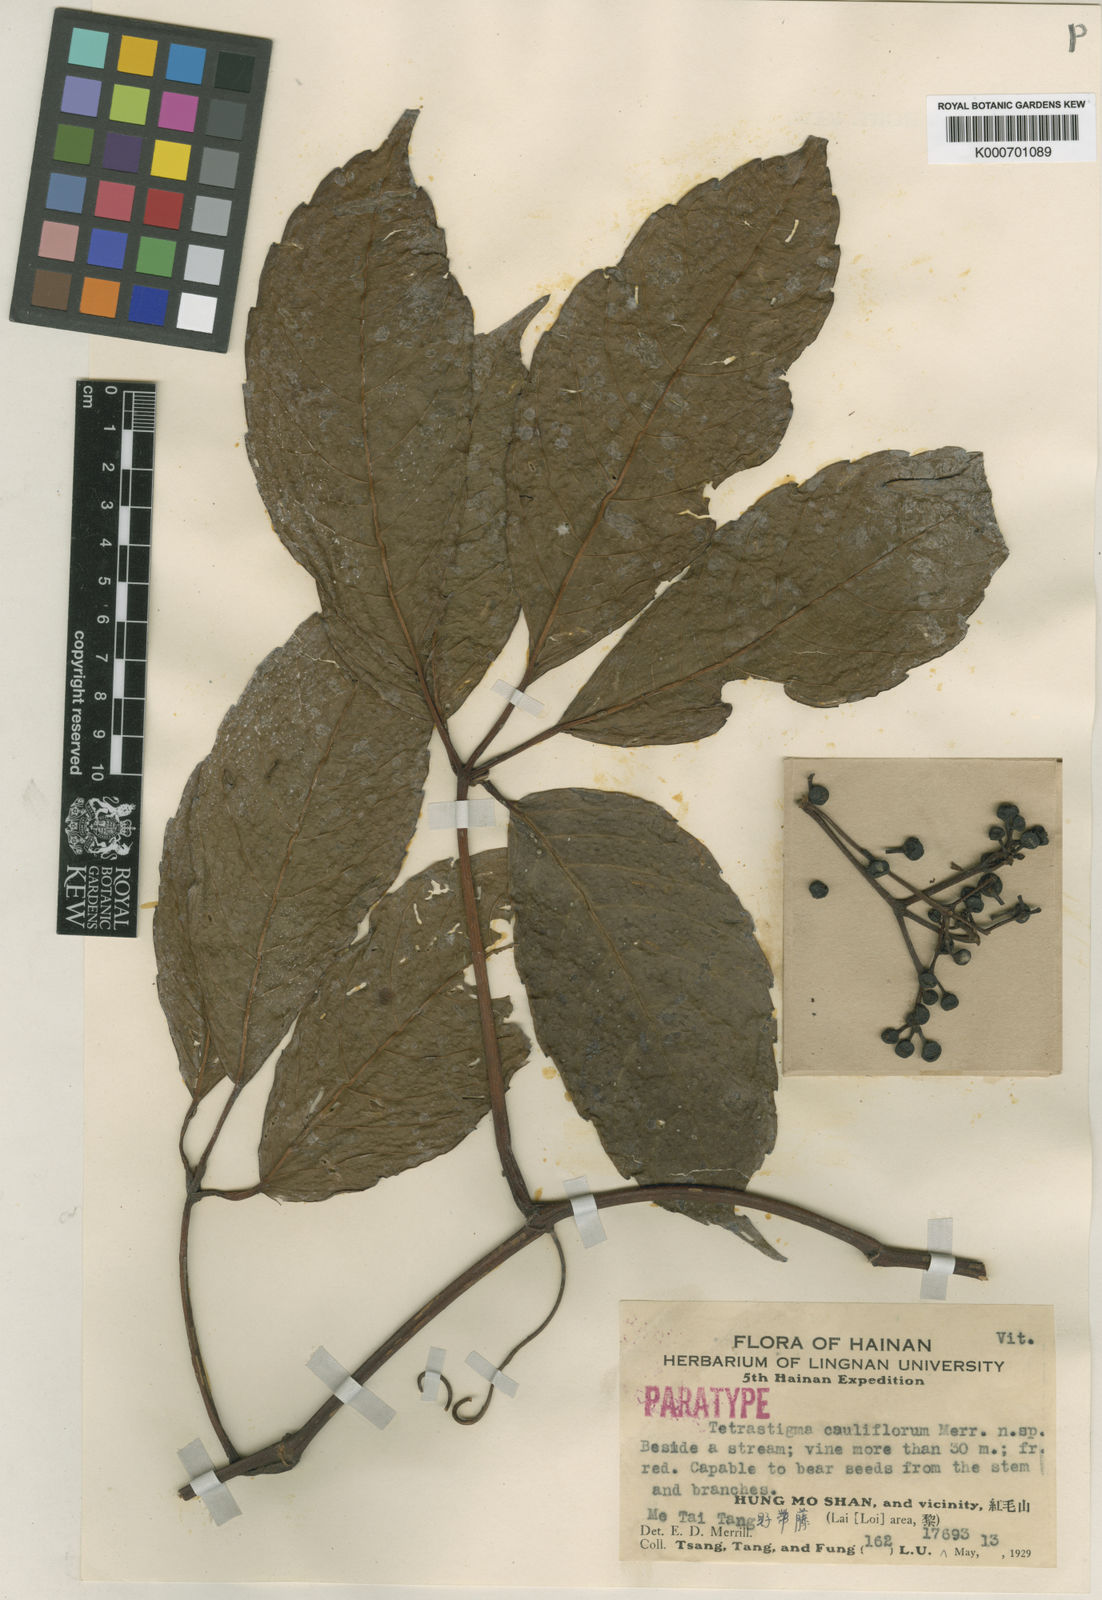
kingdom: Plantae
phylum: Tracheophyta
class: Magnoliopsida
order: Vitales
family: Vitaceae
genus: Tetrastigma
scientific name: Tetrastigma cauliflorum
